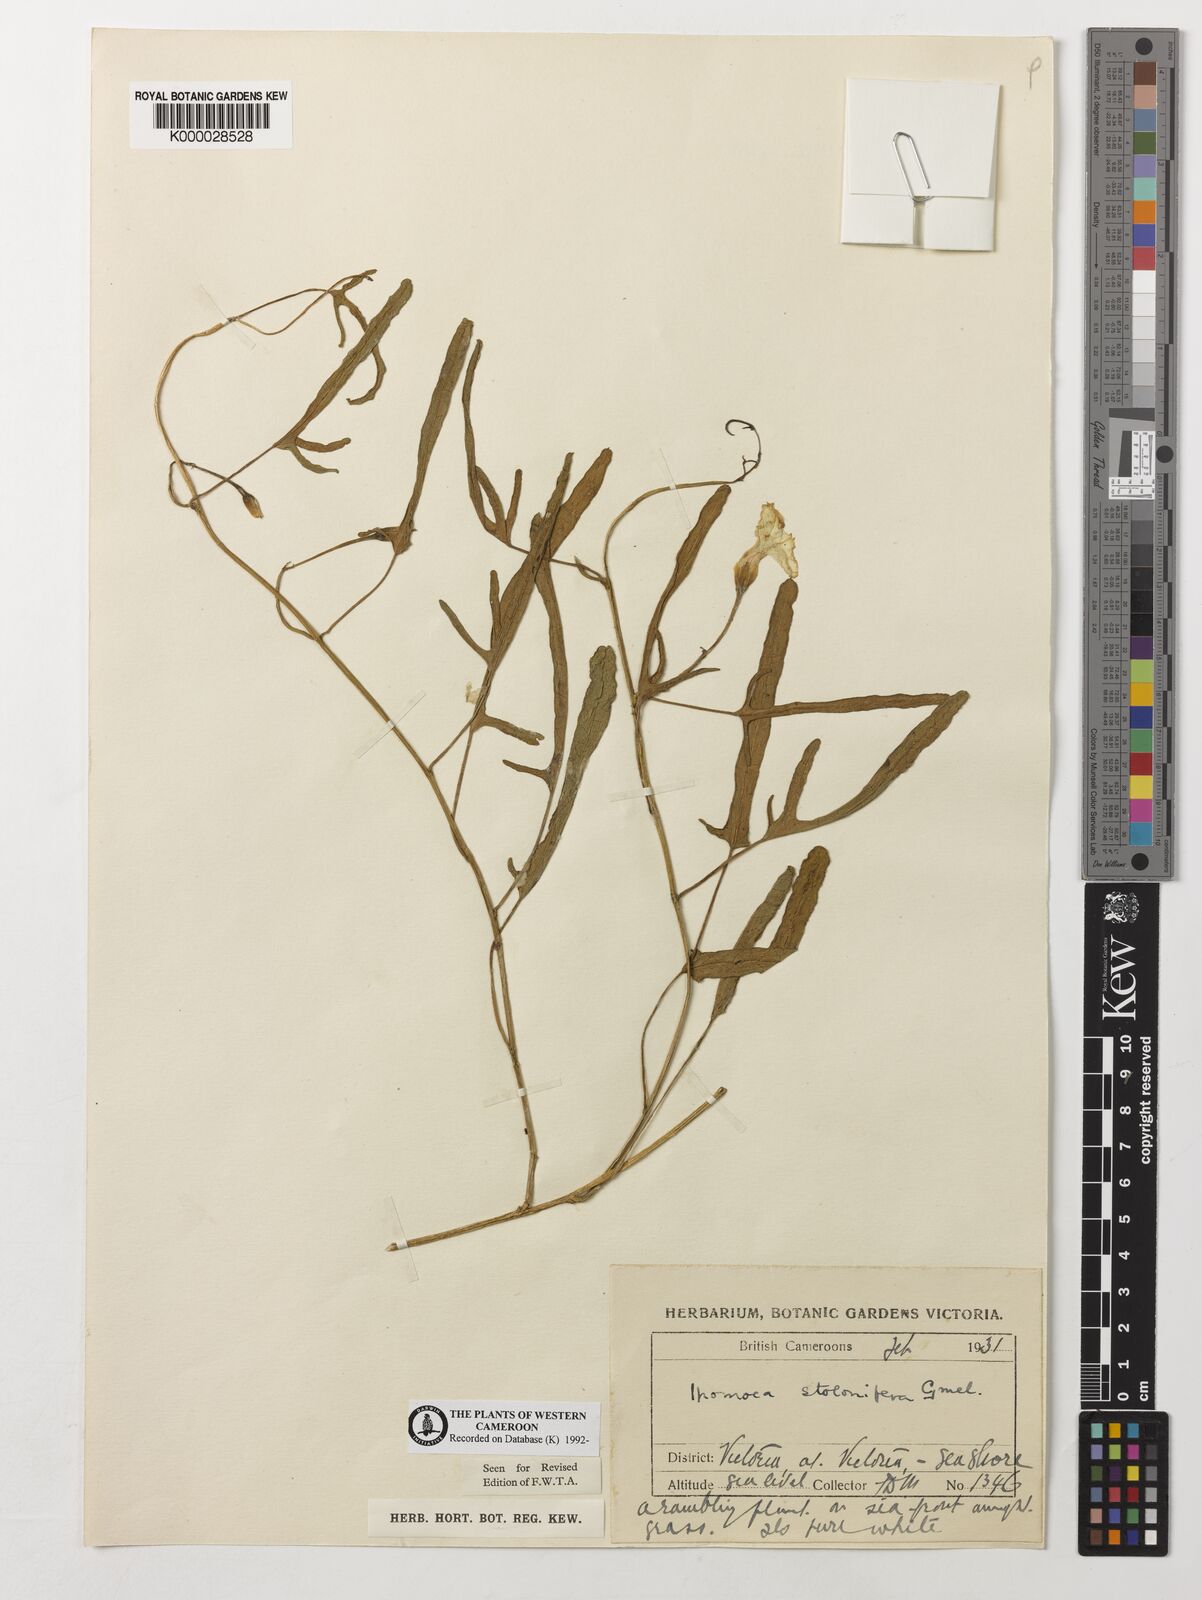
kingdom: Plantae
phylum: Tracheophyta
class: Magnoliopsida
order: Solanales
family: Convolvulaceae
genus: Ipomoea
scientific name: Ipomoea imperati
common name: Fiddle-leaf morning-glory
